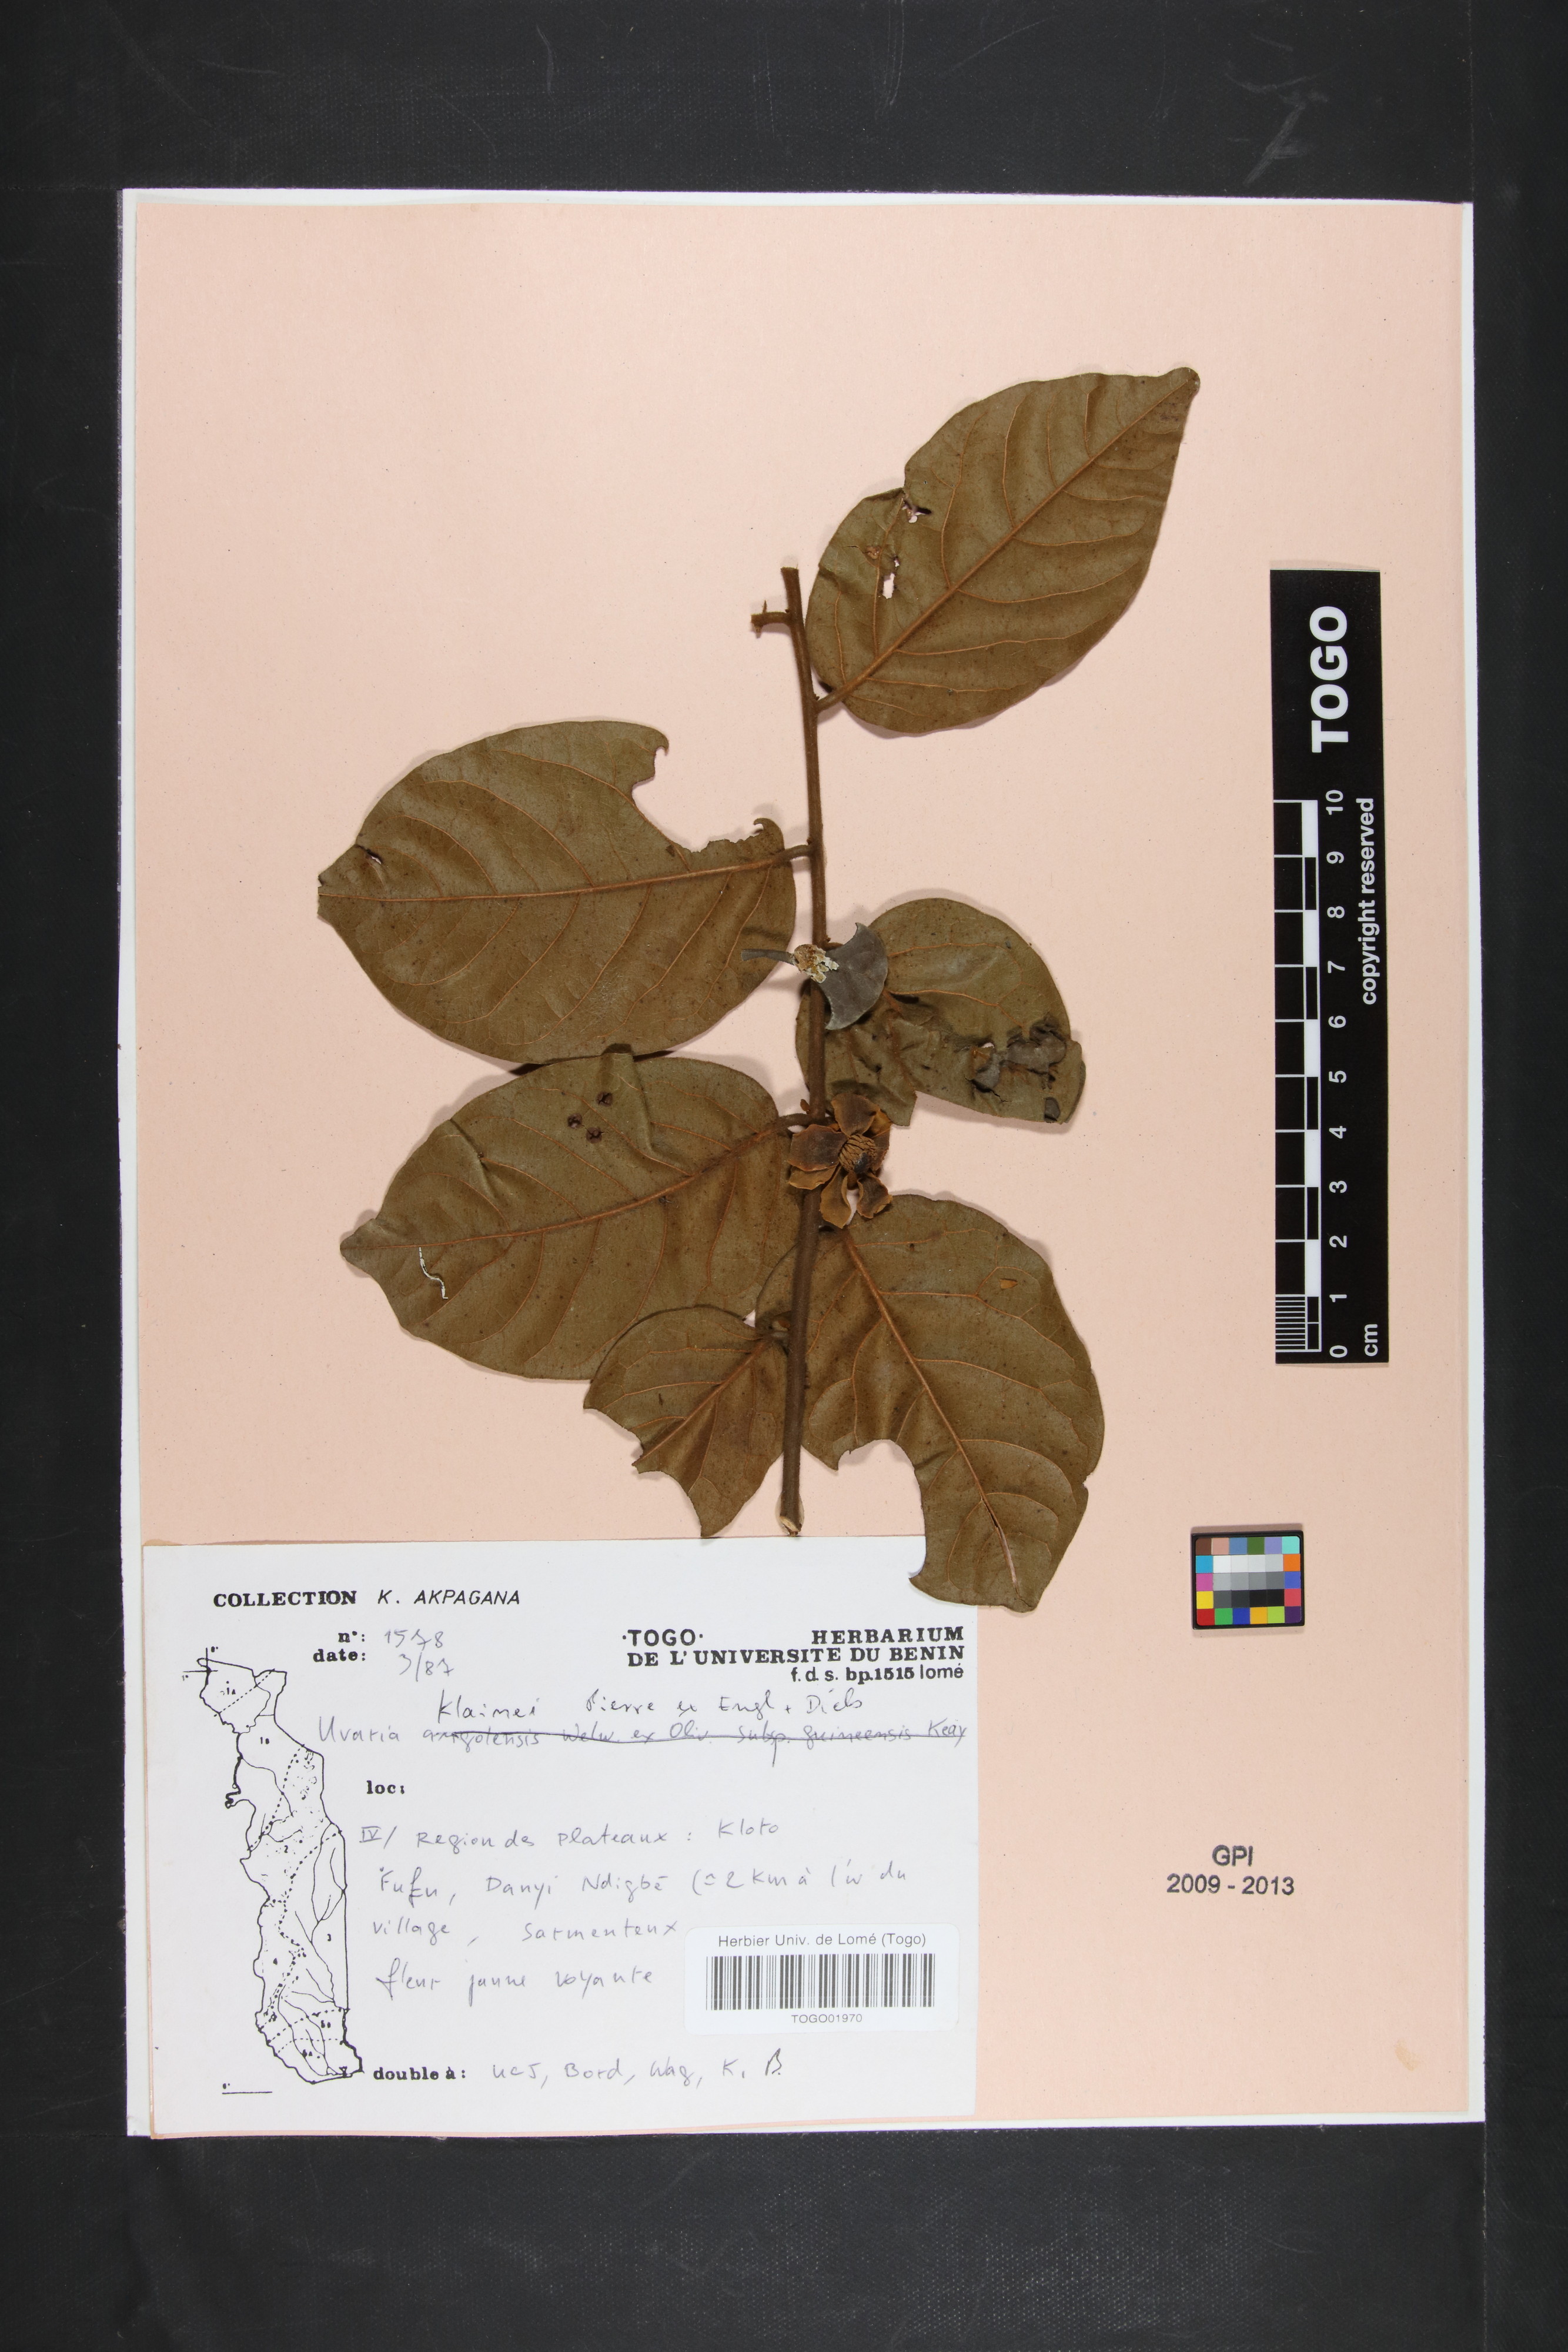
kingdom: Plantae
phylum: Tracheophyta
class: Magnoliopsida
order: Magnoliales
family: Annonaceae
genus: Uvaria
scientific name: Uvaria klaineana
